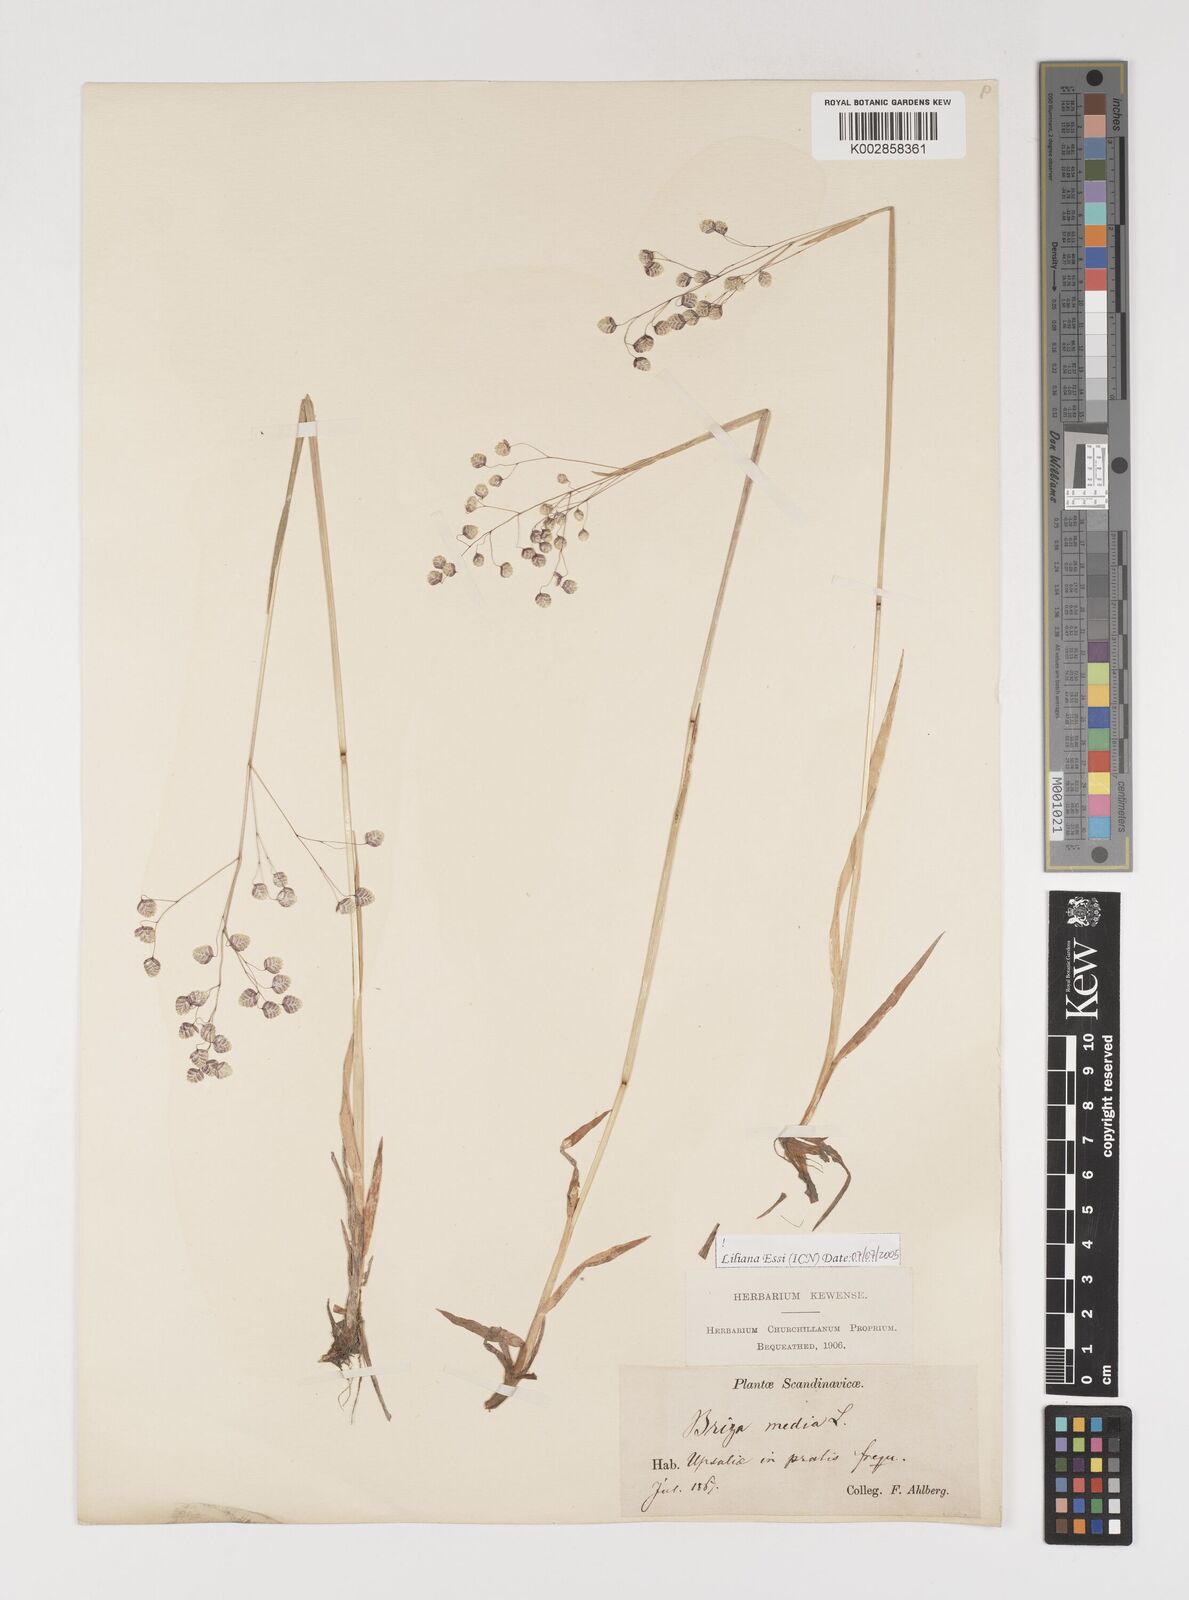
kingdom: Plantae
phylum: Tracheophyta
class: Liliopsida
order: Poales
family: Poaceae
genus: Briza
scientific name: Briza media
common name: Quaking grass
